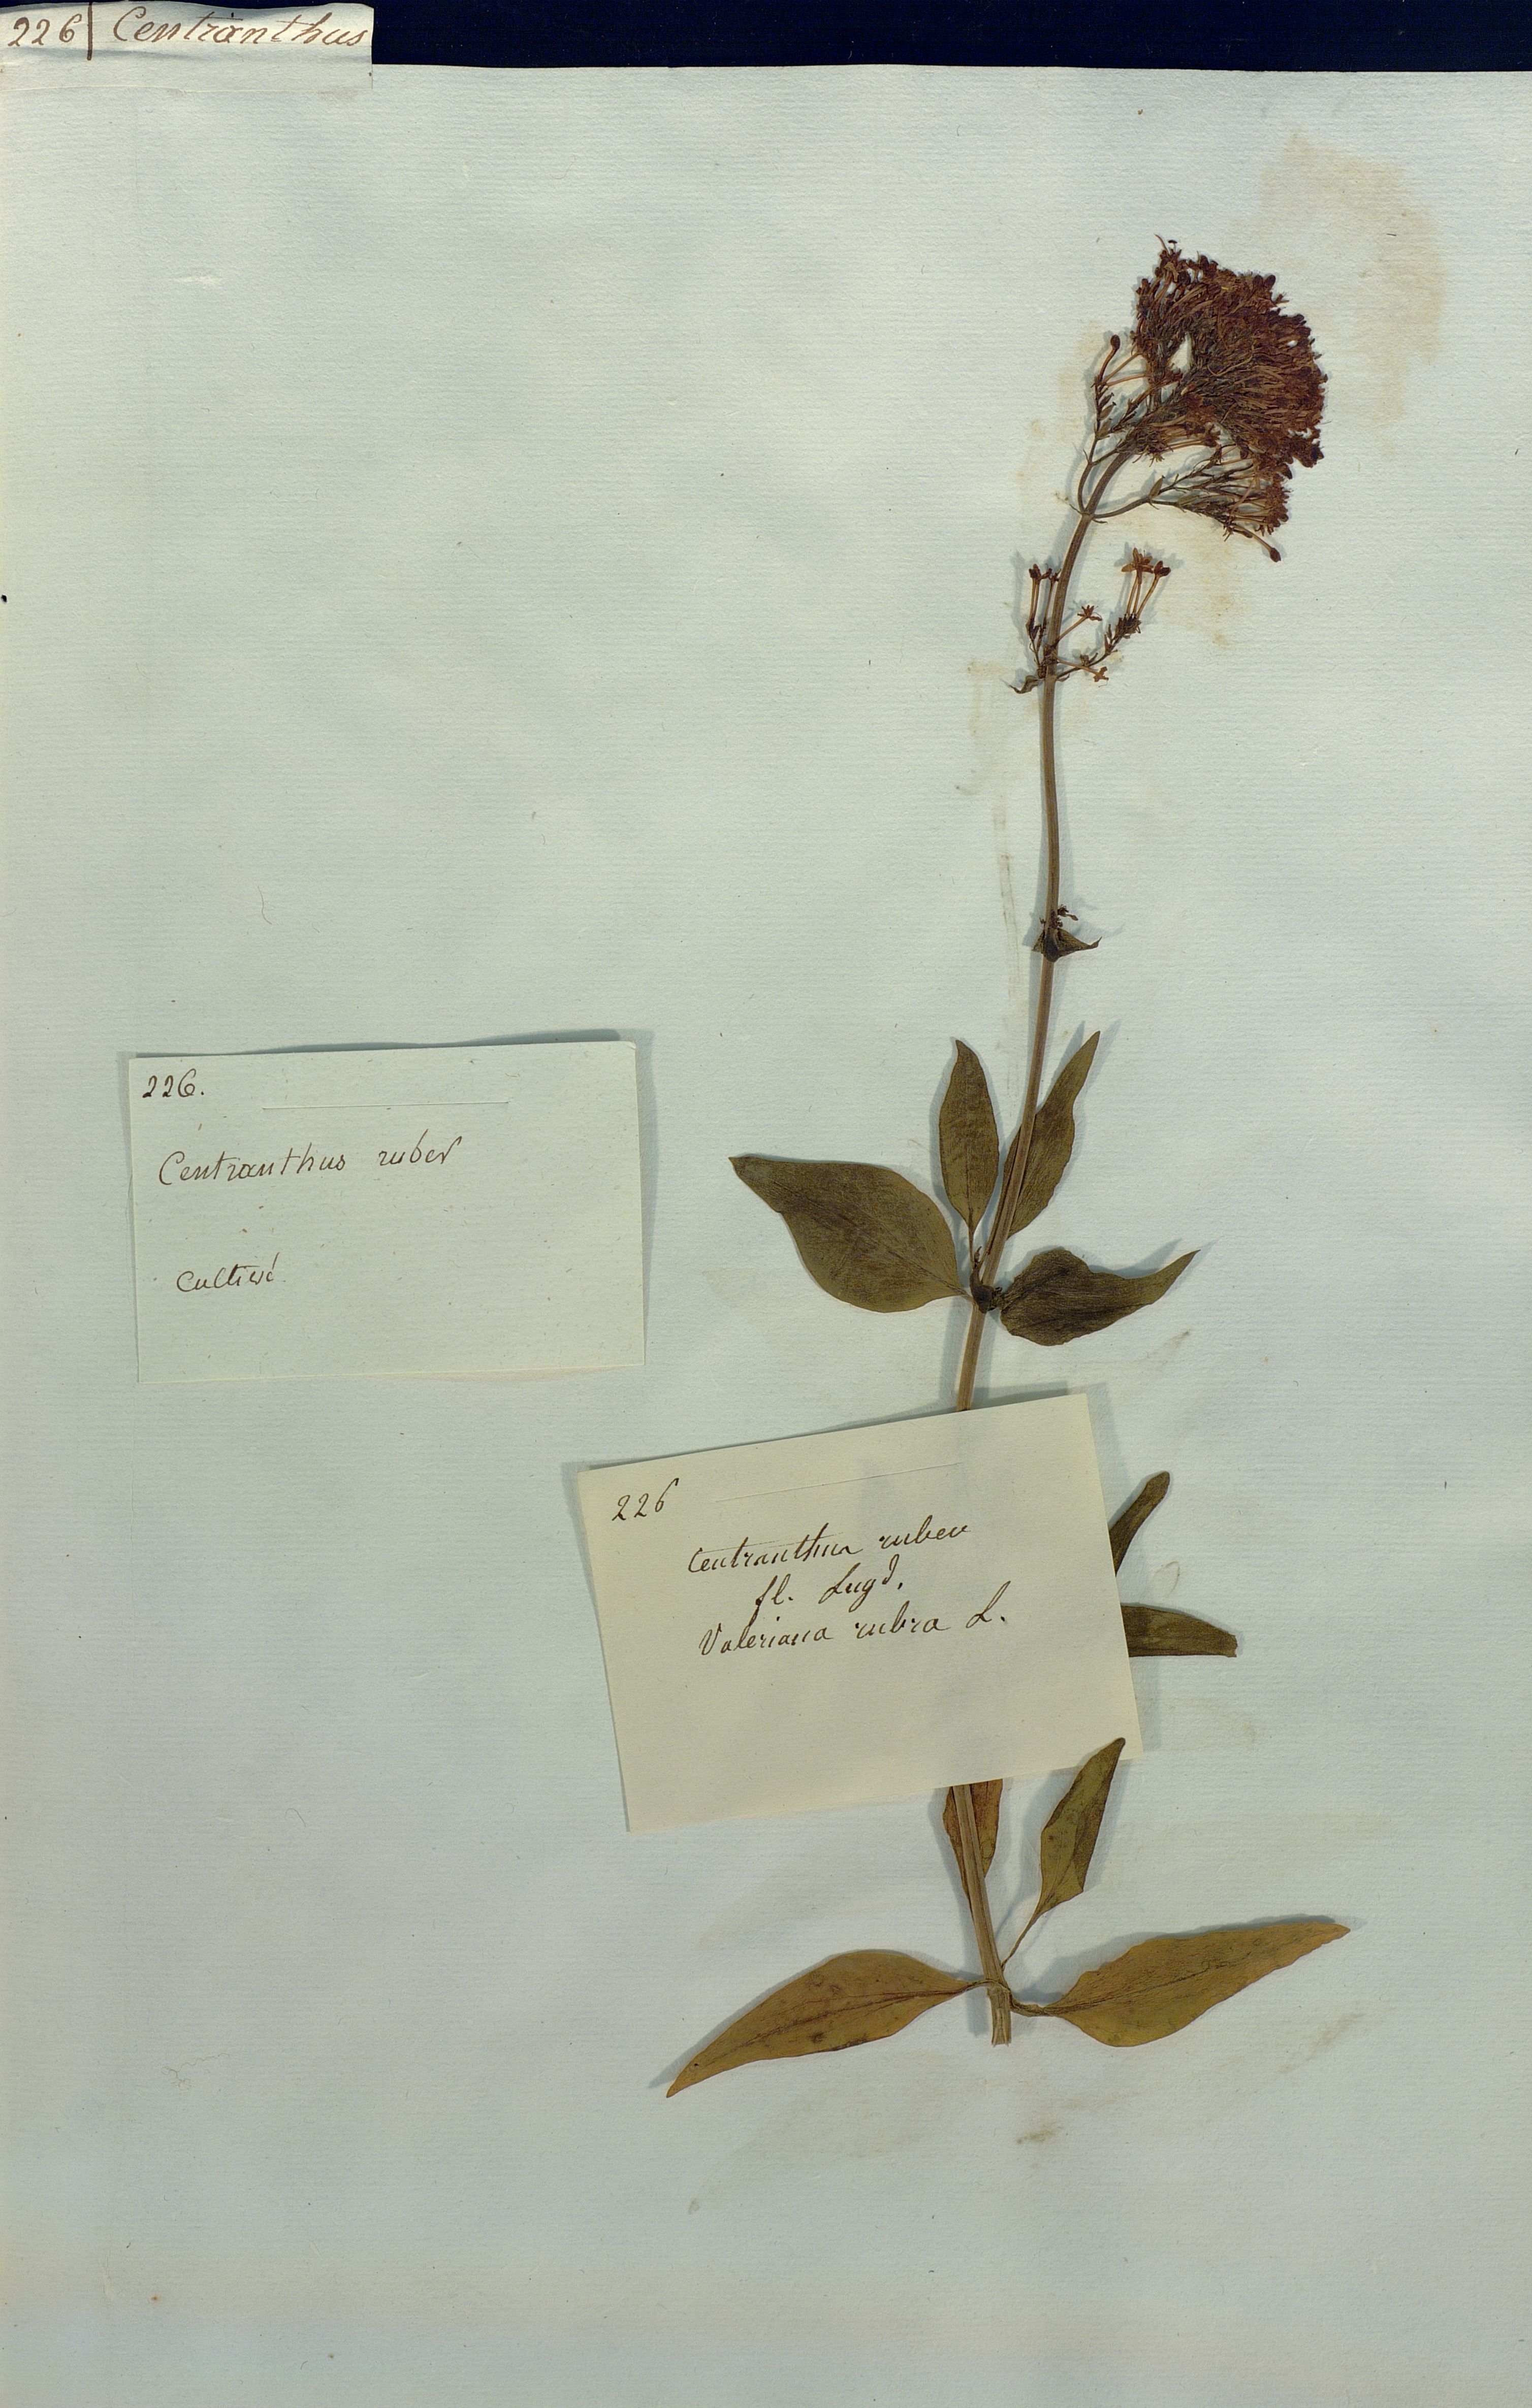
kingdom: Plantae
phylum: Tracheophyta
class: Magnoliopsida
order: Dipsacales
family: Caprifoliaceae
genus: Centranthus
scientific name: Centranthus ruber
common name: Red valerian
